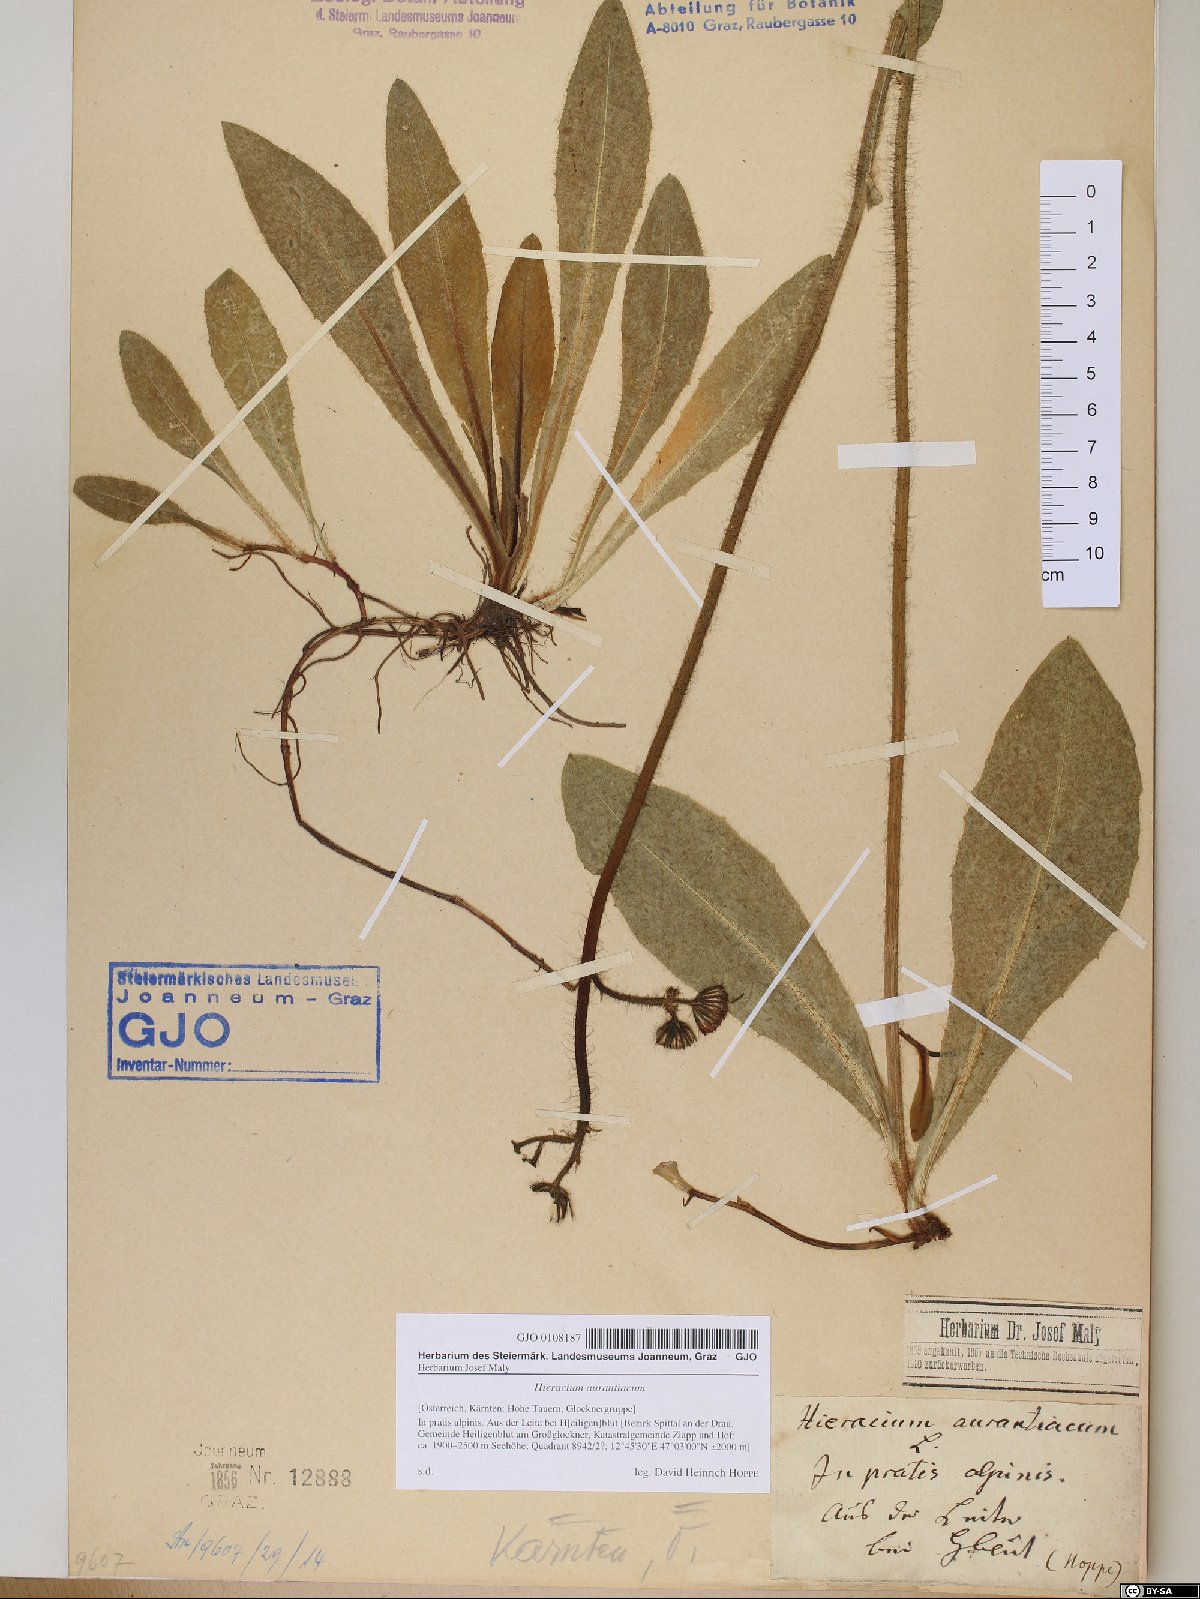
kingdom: Plantae
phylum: Tracheophyta
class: Magnoliopsida
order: Asterales
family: Asteraceae
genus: Pilosella
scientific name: Pilosella aurantiaca
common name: Fox-and-cubs
